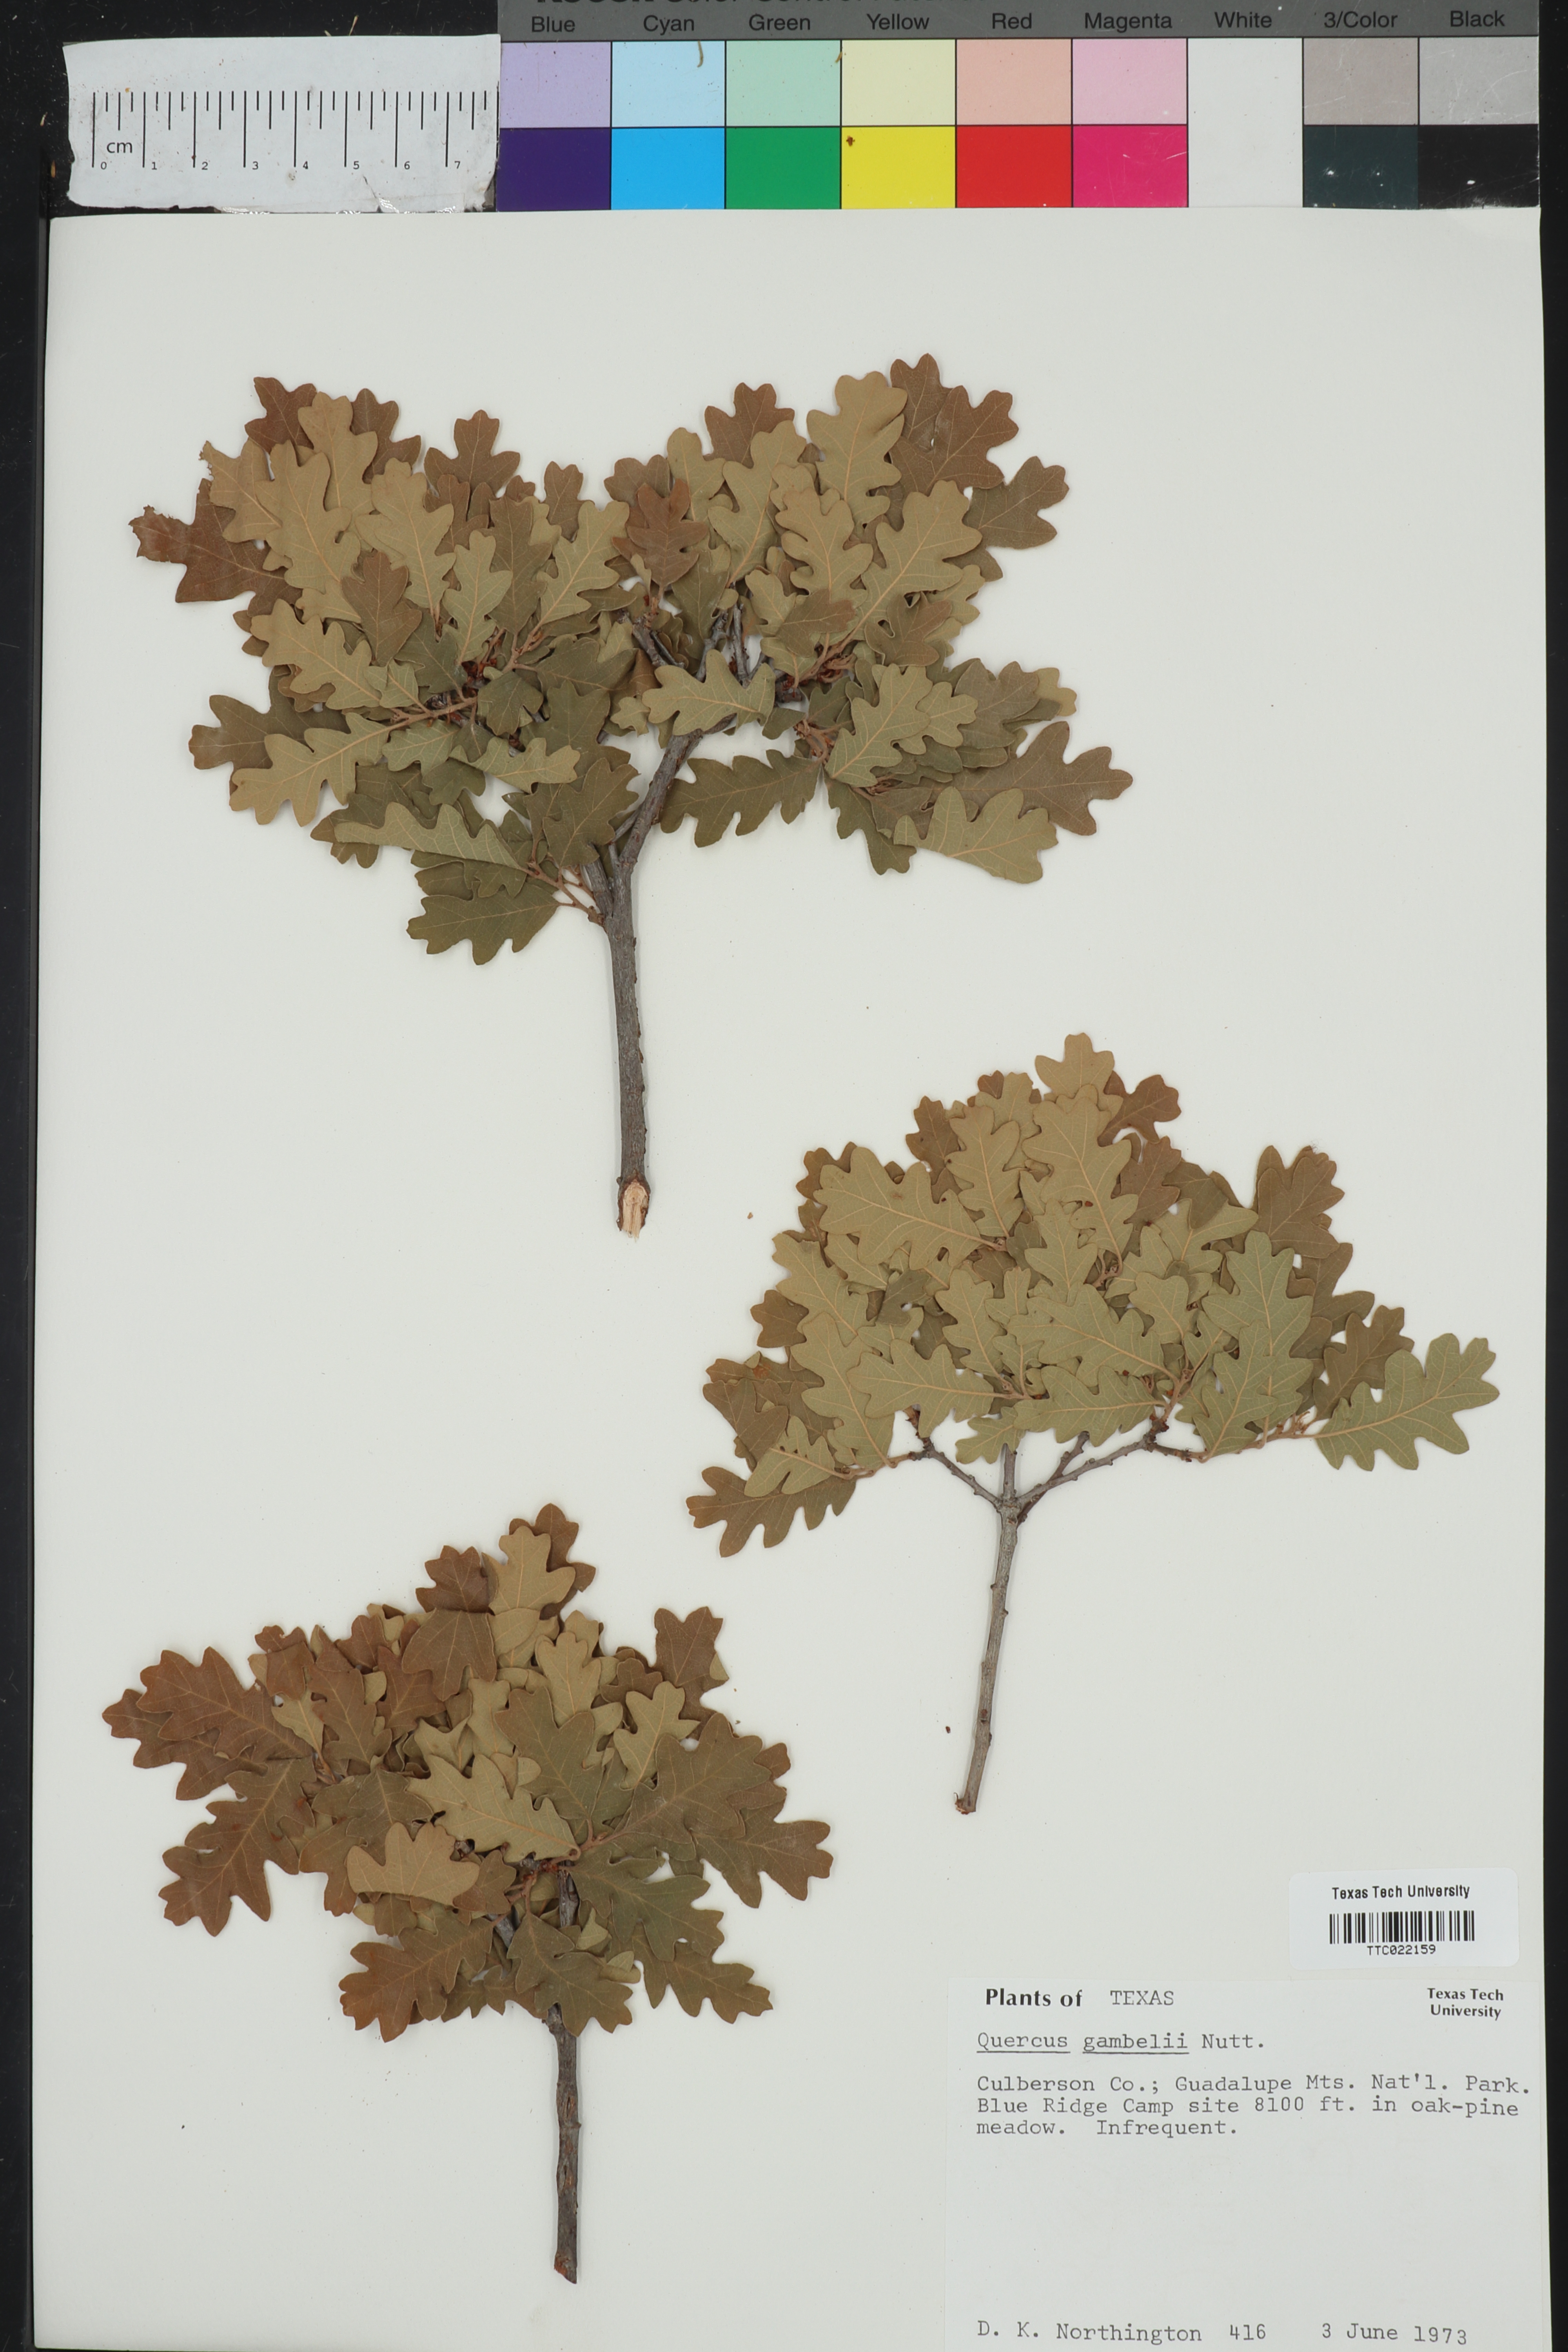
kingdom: Plantae
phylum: Tracheophyta
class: Magnoliopsida
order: Fagales
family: Fagaceae
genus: Quercus
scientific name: Quercus gambelii
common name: Gambel oak
